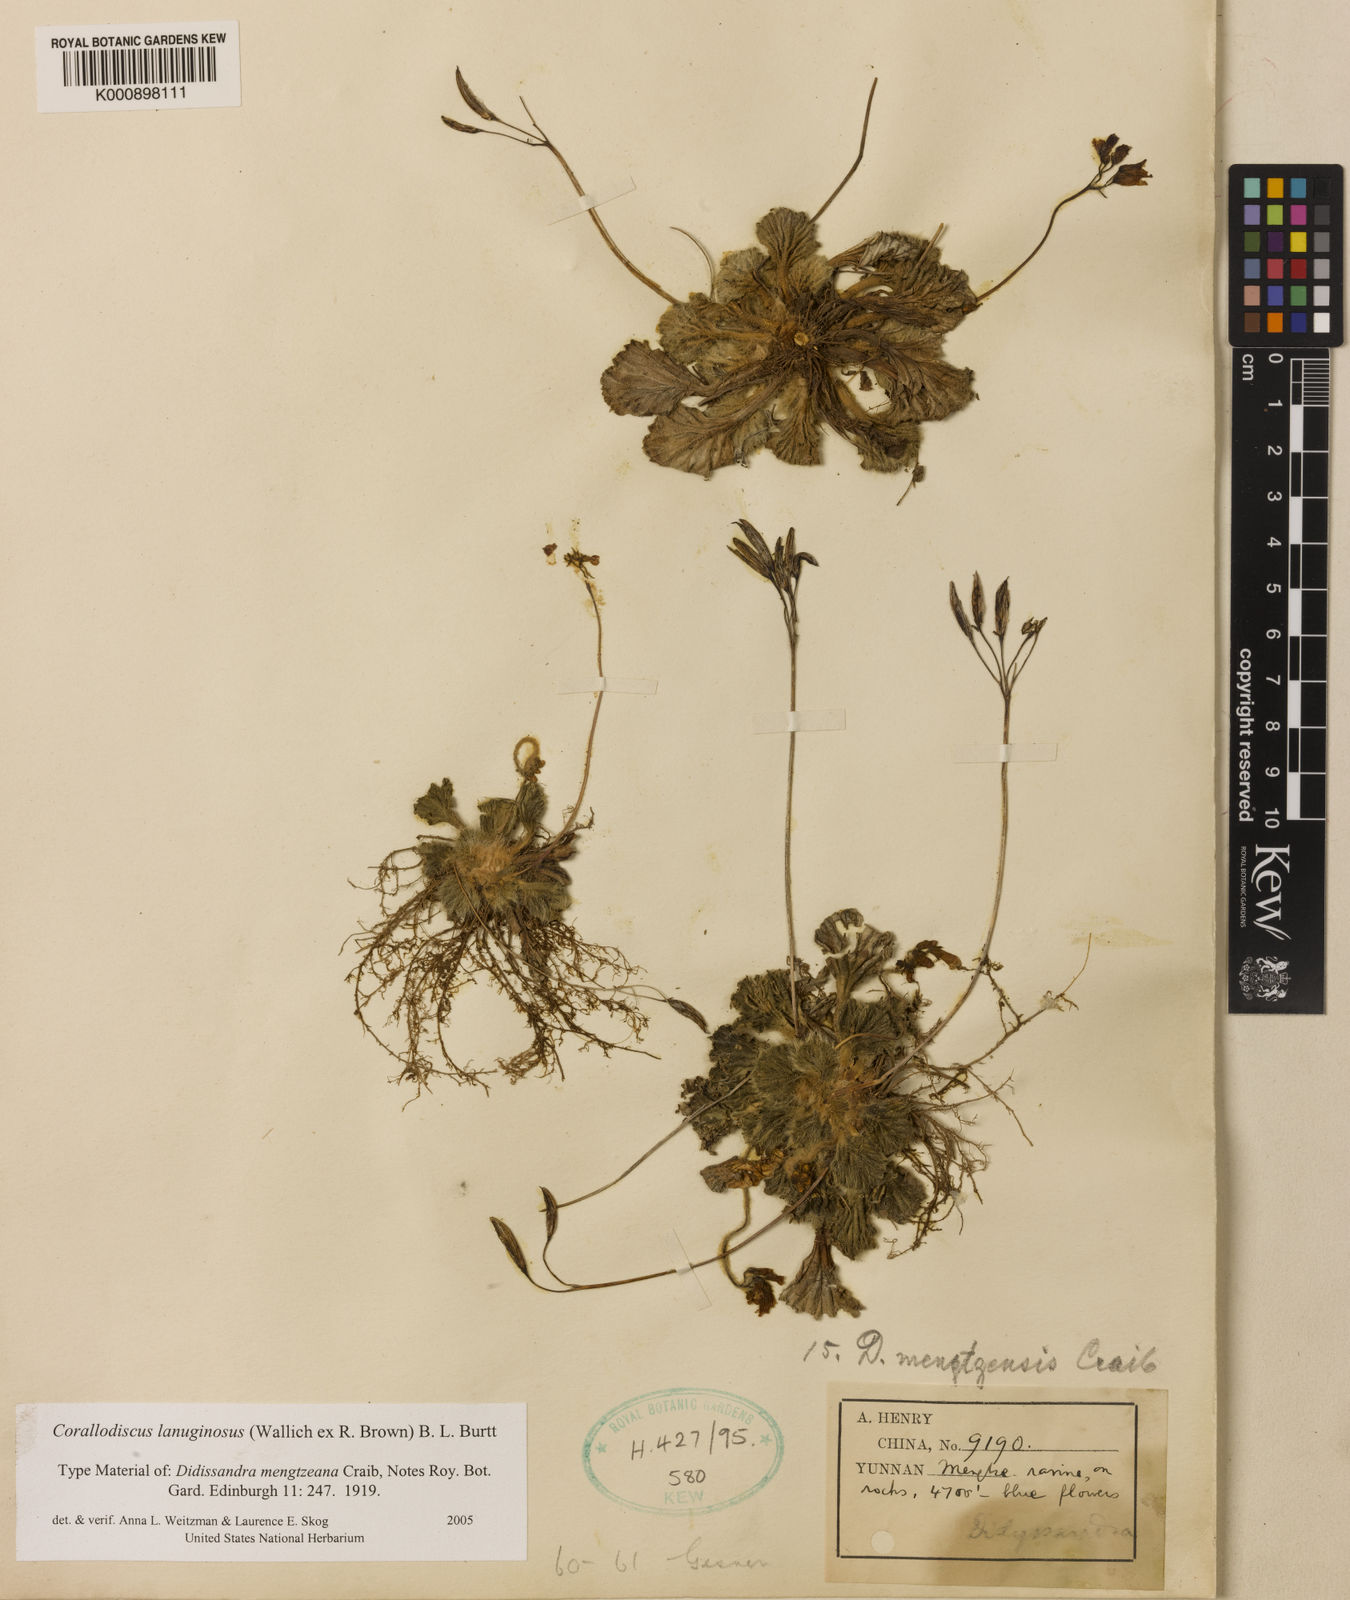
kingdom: Plantae
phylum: Tracheophyta
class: Magnoliopsida
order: Lamiales
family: Gesneriaceae
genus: Corallodiscus
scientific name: Corallodiscus lanuginosus
